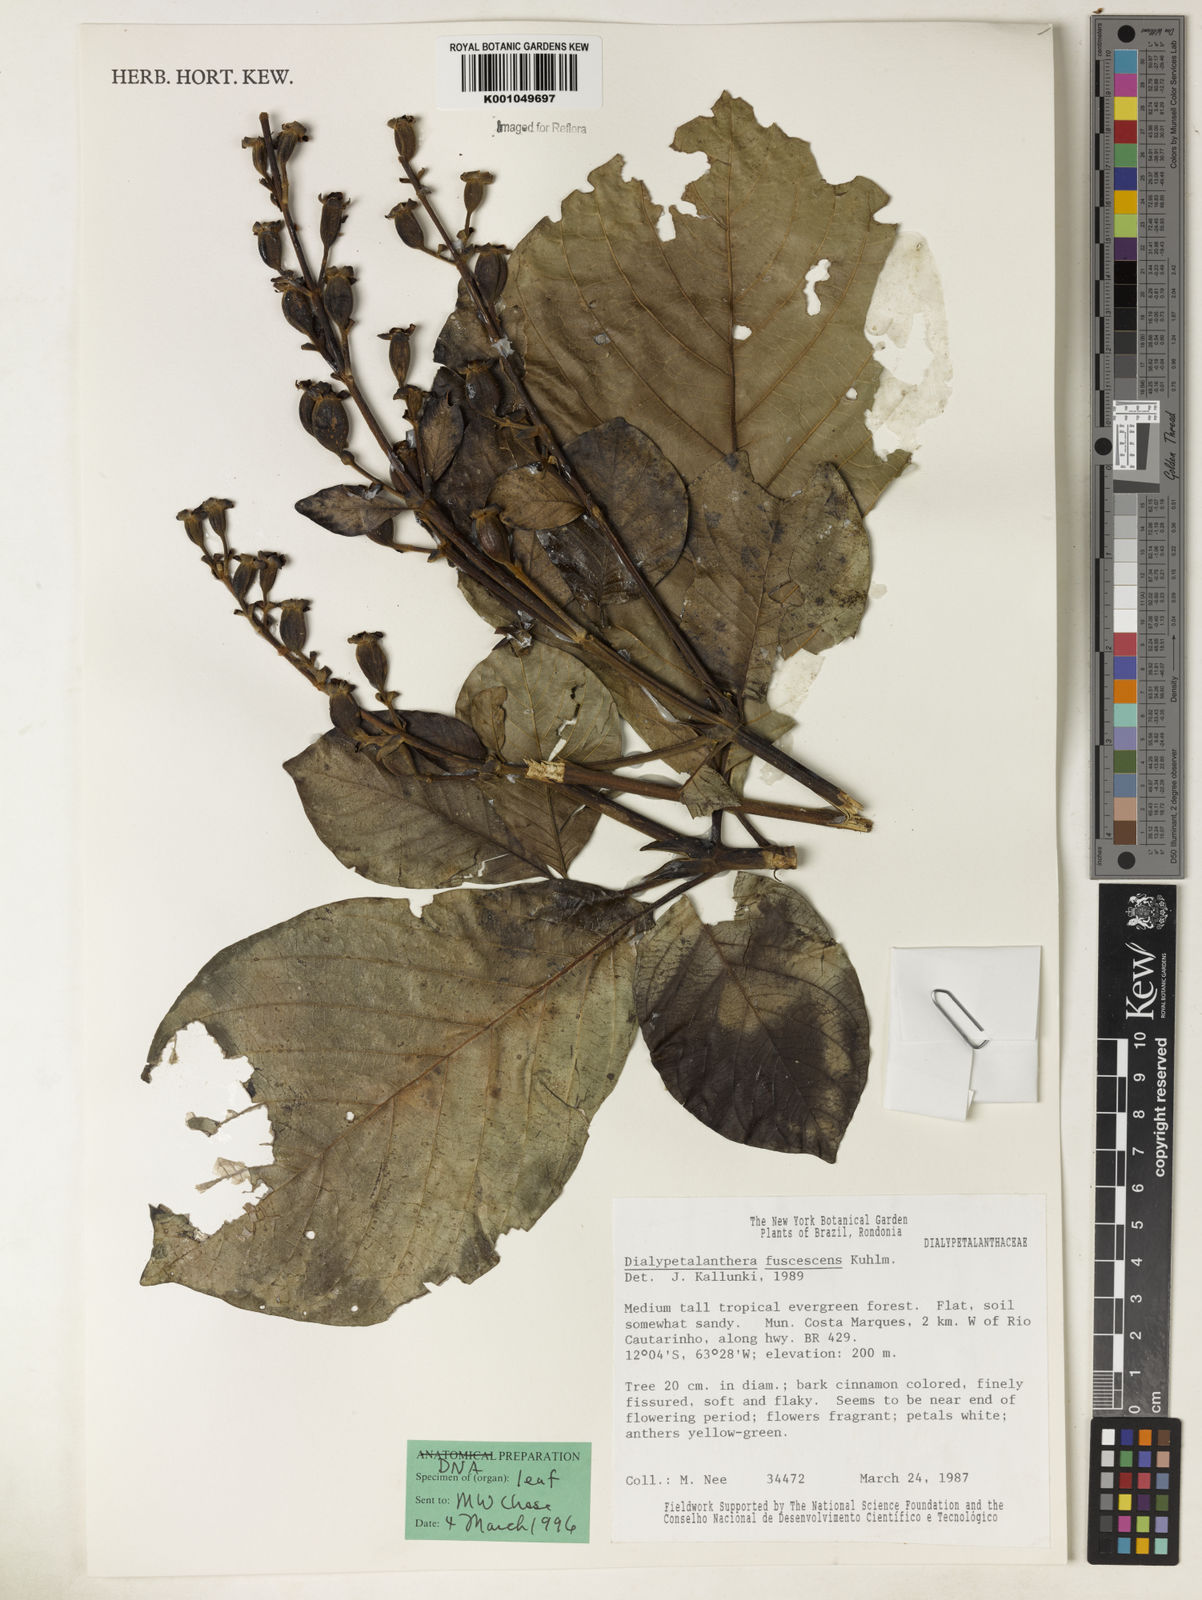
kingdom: Plantae
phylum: Tracheophyta
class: Magnoliopsida
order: Gentianales
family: Rubiaceae
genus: Dialypetalanthus
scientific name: Dialypetalanthus fuscescens
